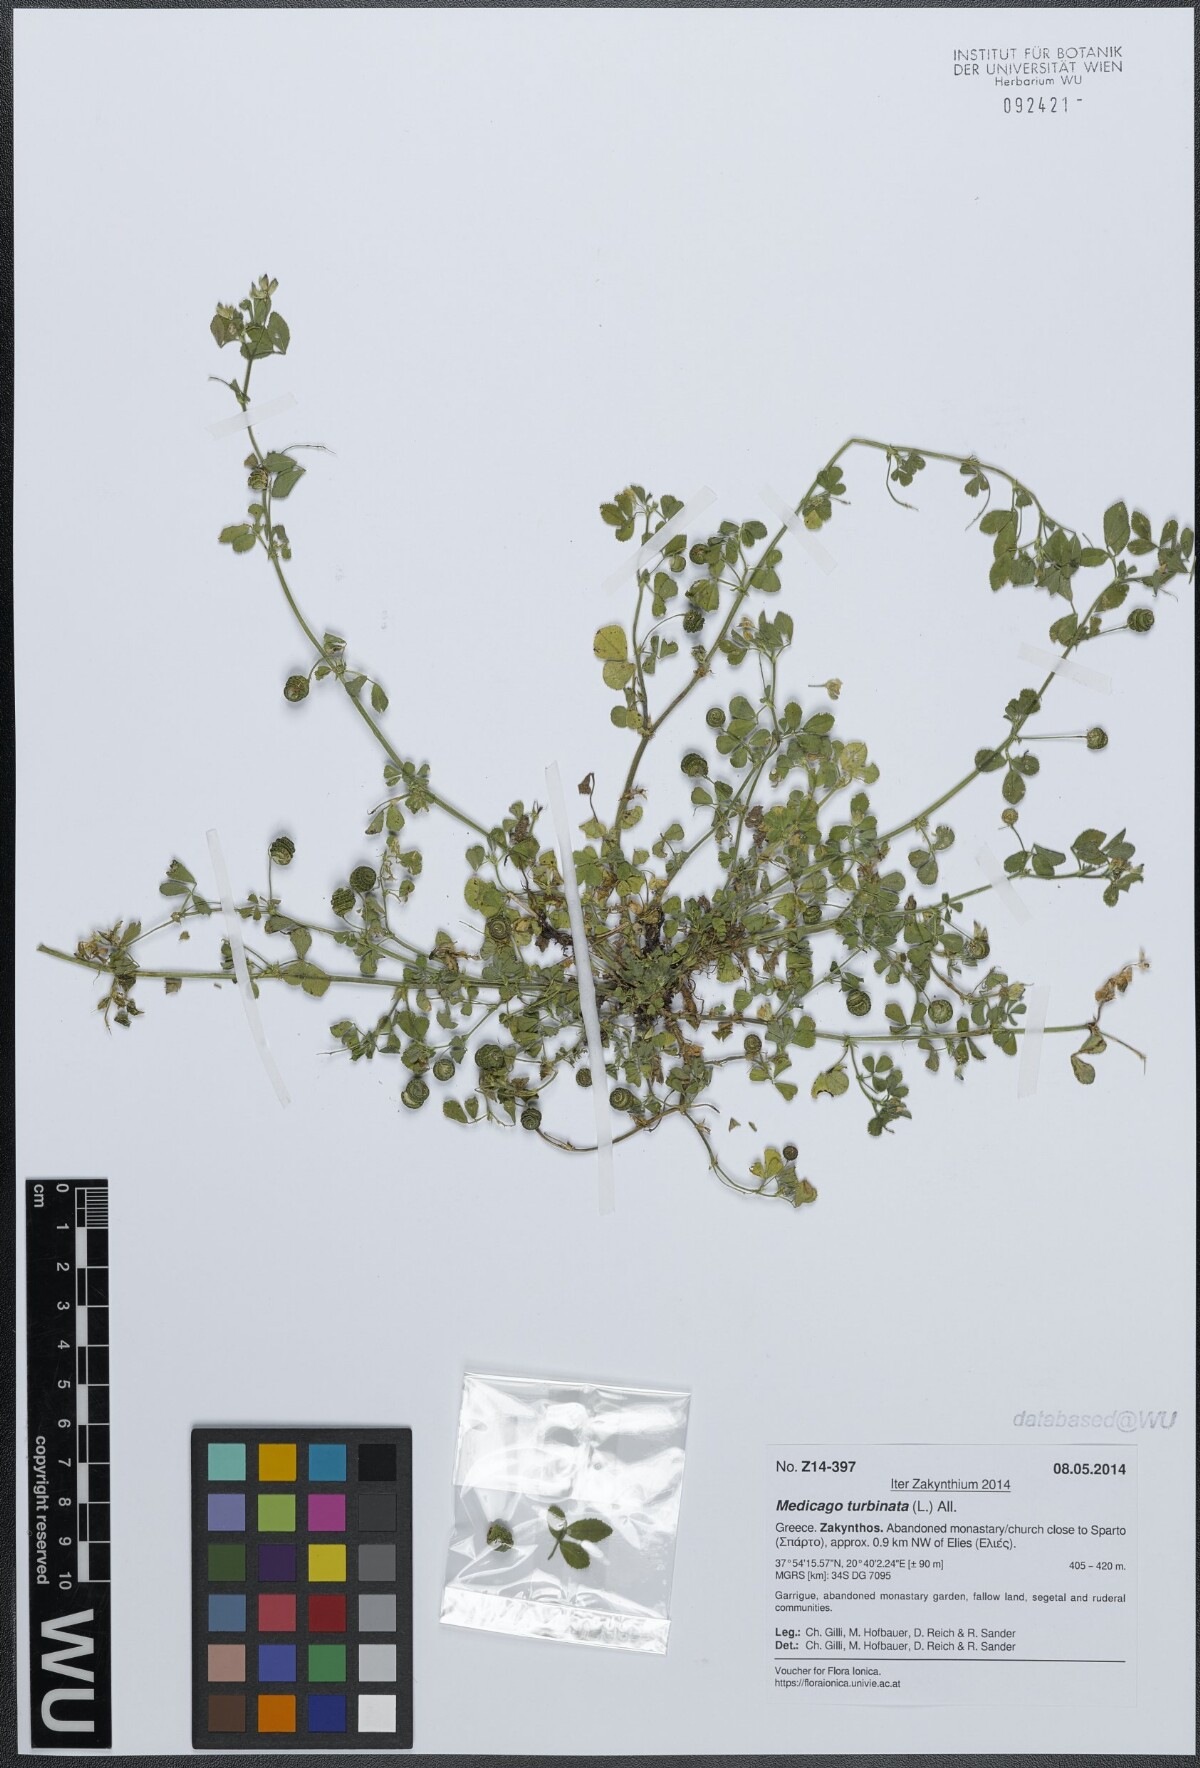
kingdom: Plantae
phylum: Tracheophyta
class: Magnoliopsida
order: Fabales
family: Fabaceae
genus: Medicago
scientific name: Medicago turbinata
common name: Southern medick
